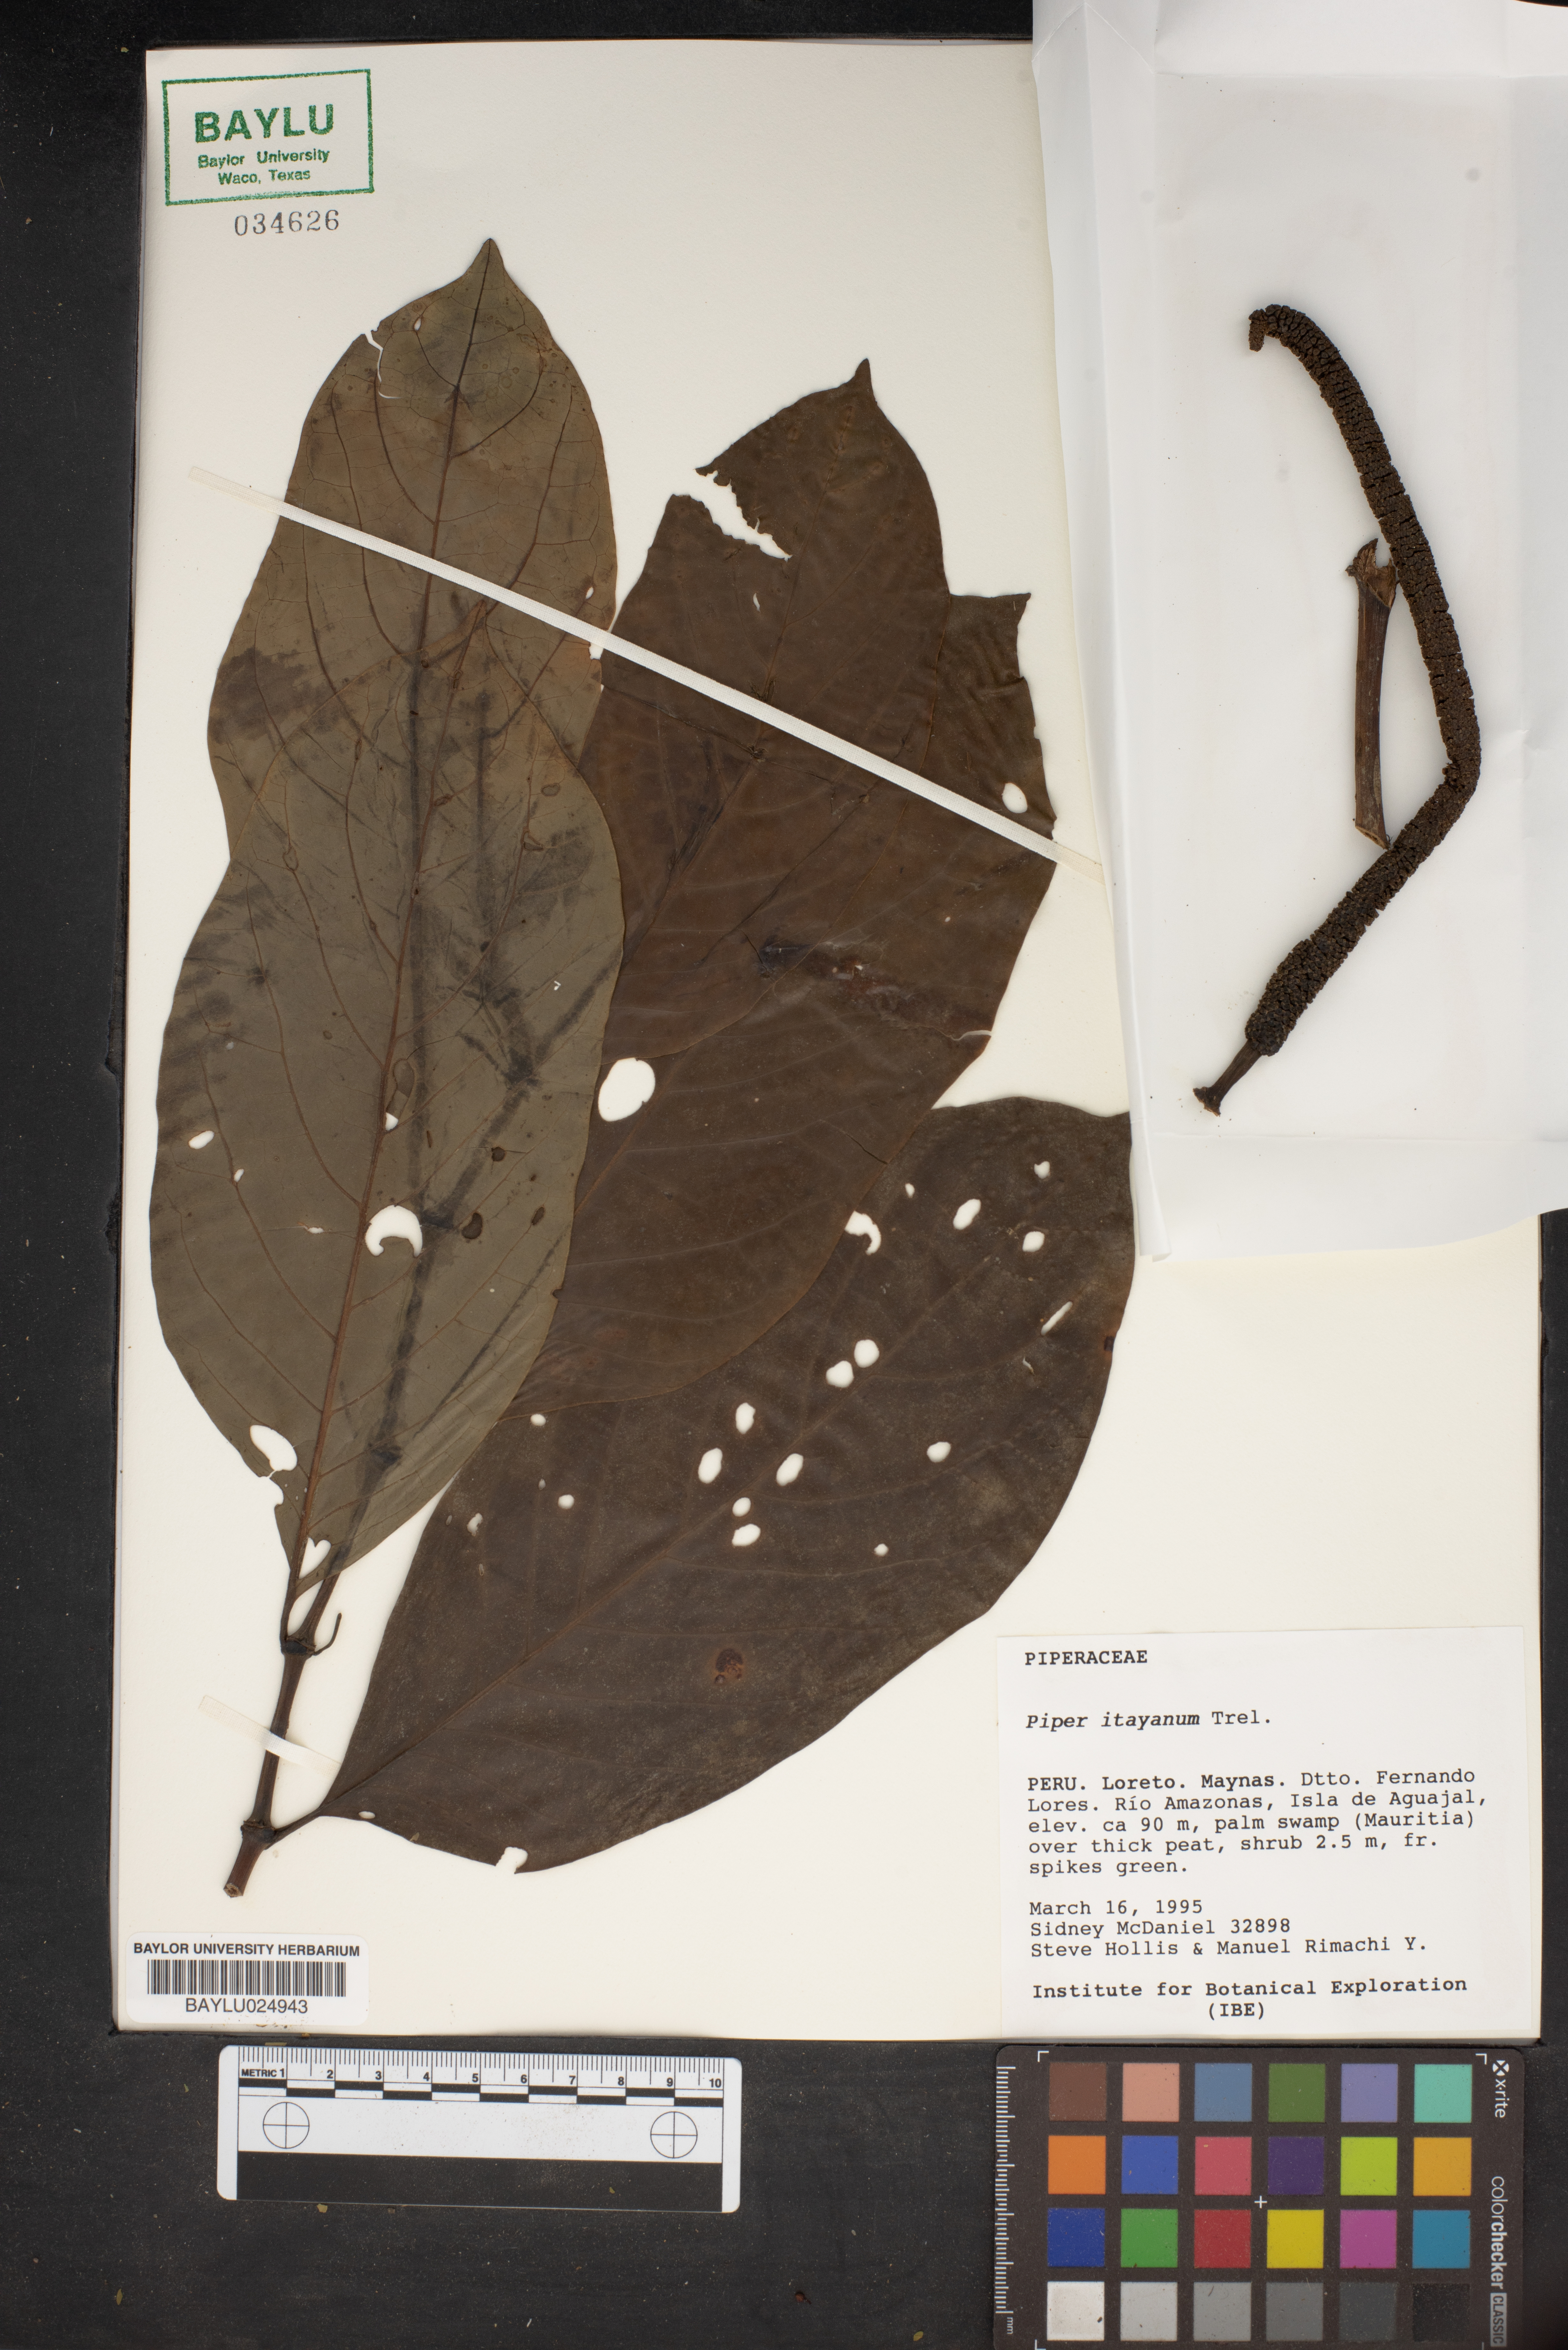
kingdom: Plantae
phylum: Tracheophyta
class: Magnoliopsida
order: Piperales
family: Piperaceae
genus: Piper
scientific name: Piper itayanum
